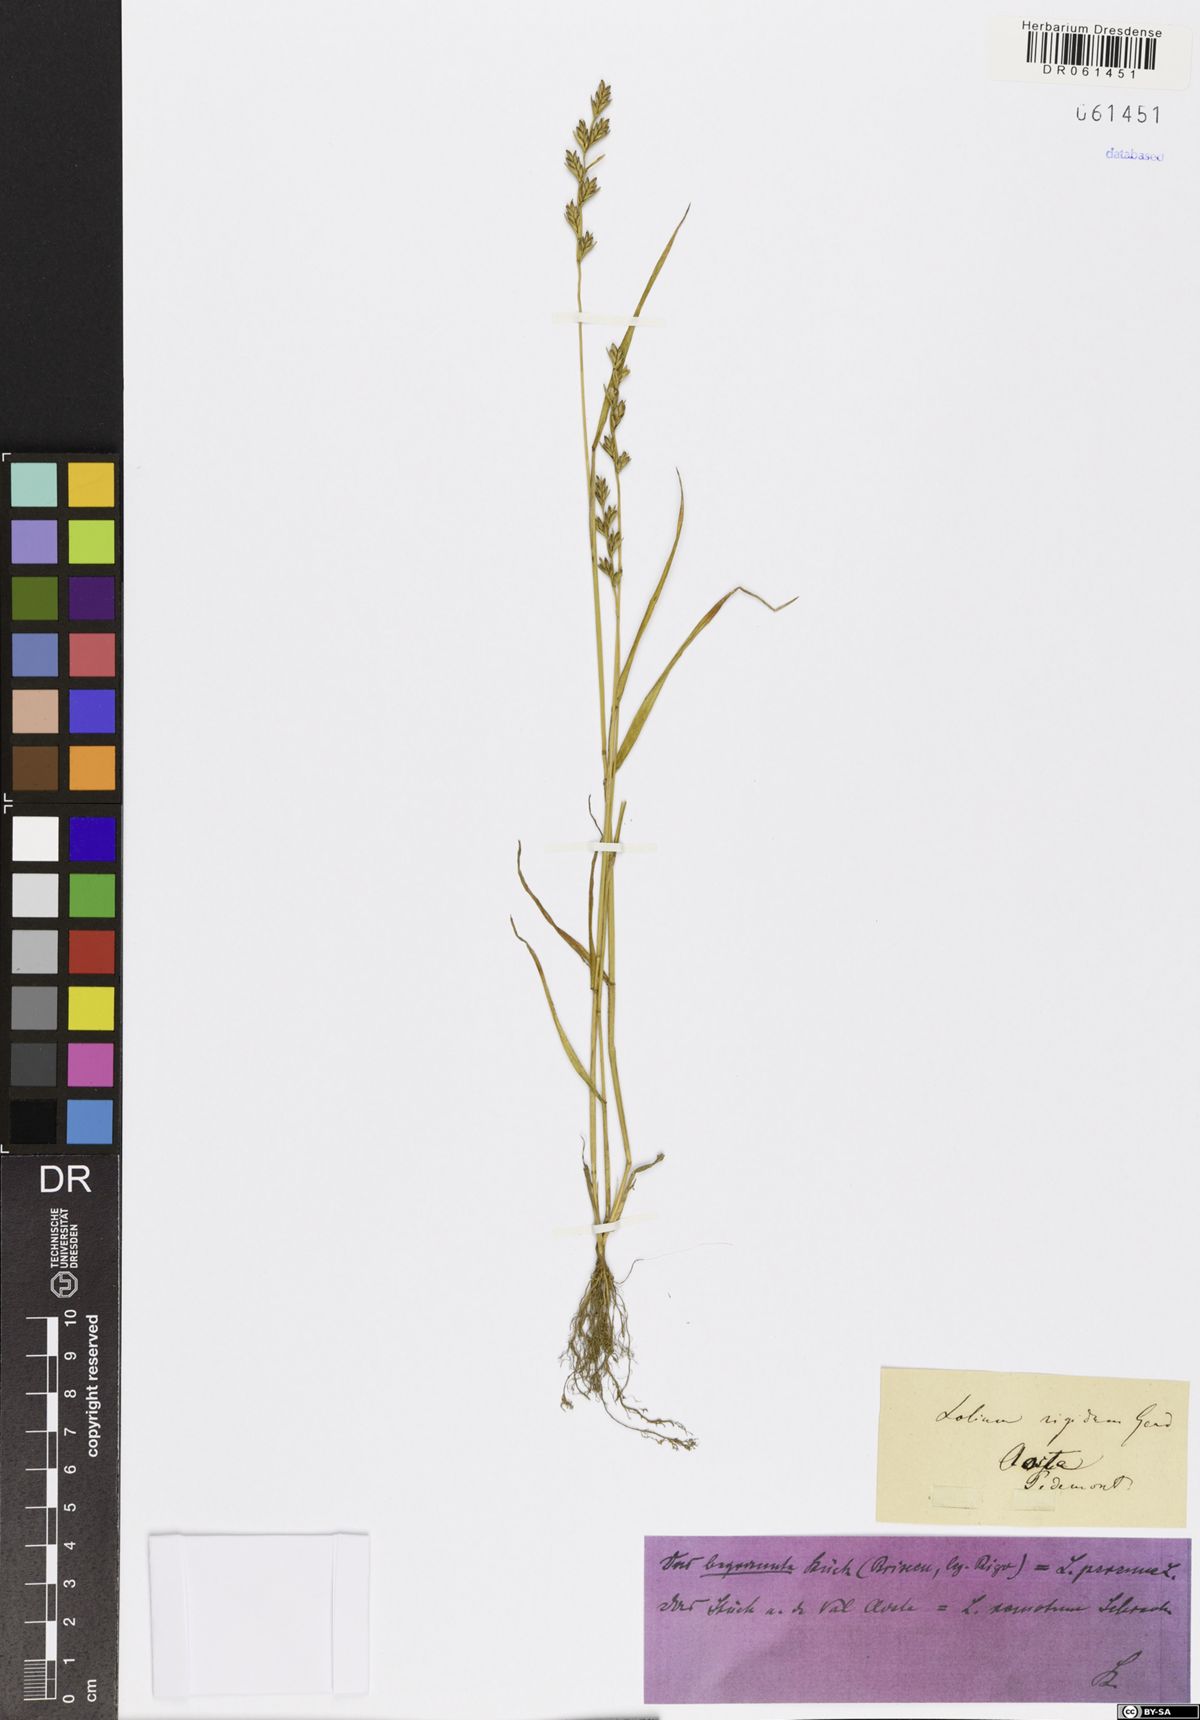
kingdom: Plantae
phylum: Tracheophyta
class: Liliopsida
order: Poales
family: Poaceae
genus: Lolium
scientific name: Lolium remotum
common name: Flaxfield rye-grass
